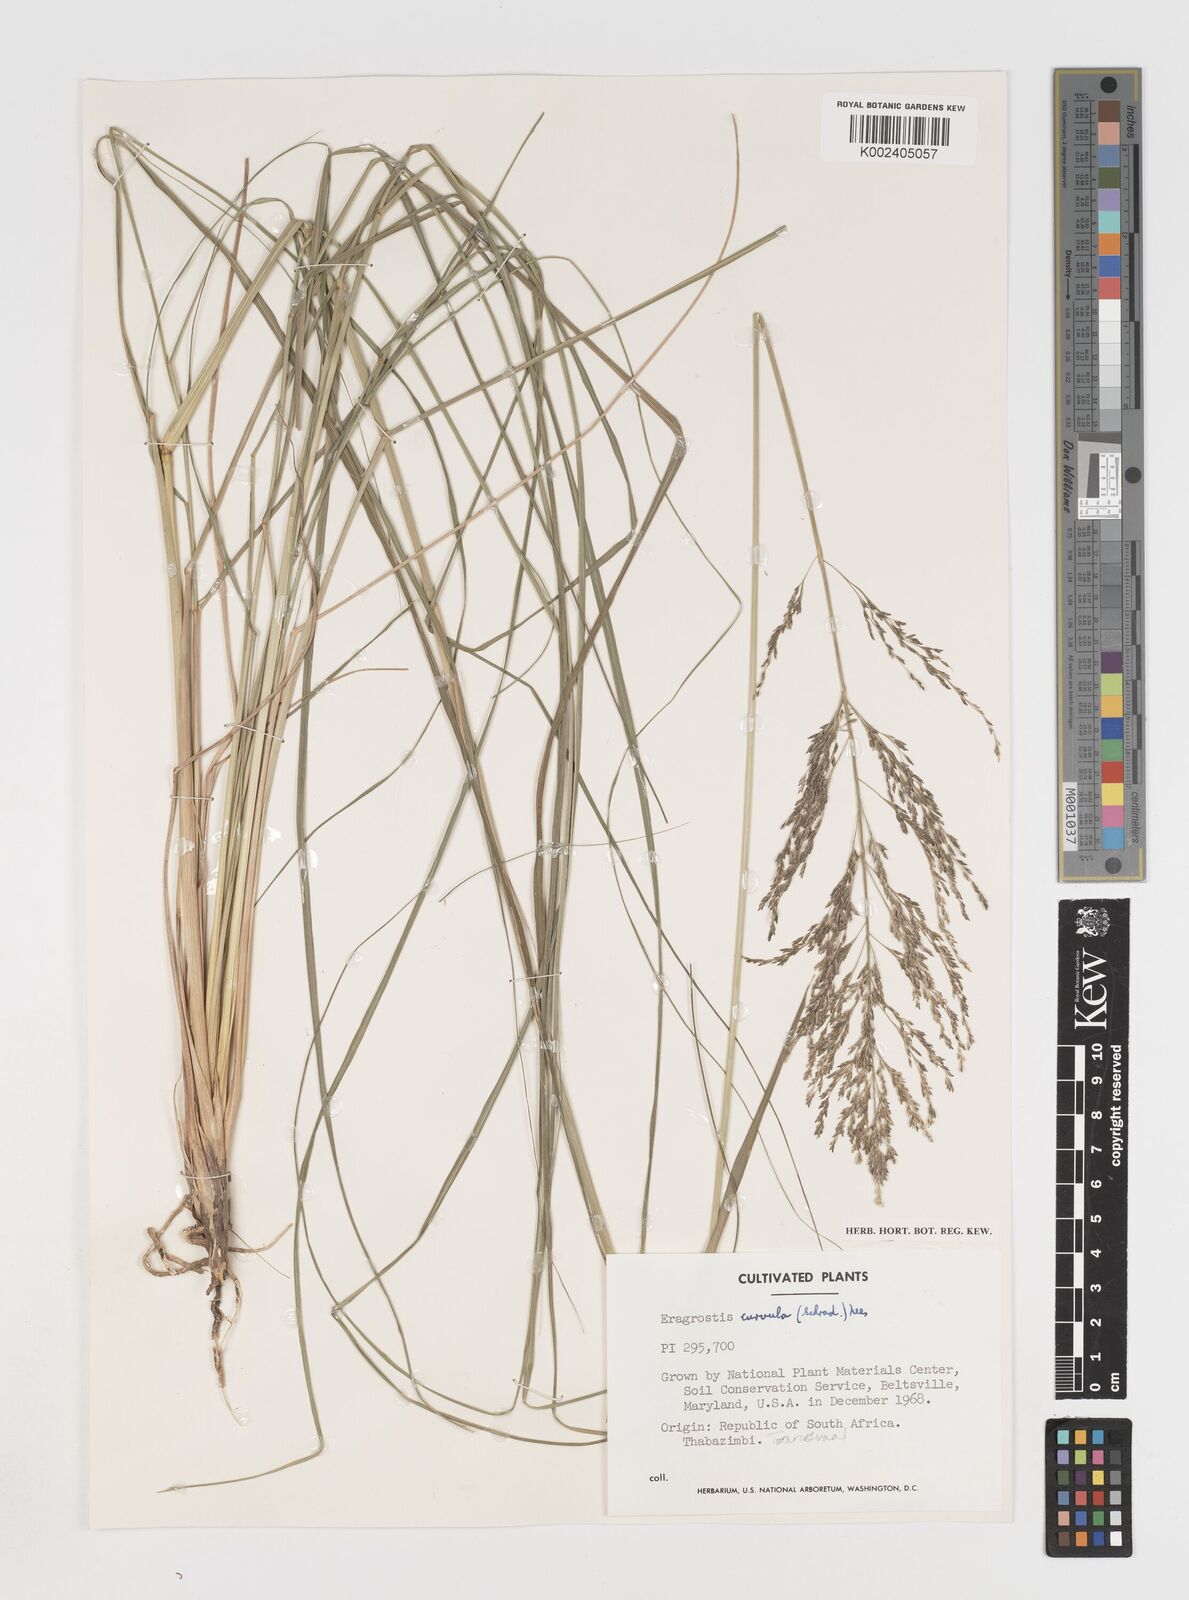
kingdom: Plantae
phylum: Tracheophyta
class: Liliopsida
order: Poales
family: Poaceae
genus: Eragrostis
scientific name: Eragrostis curvula
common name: African love-grass
